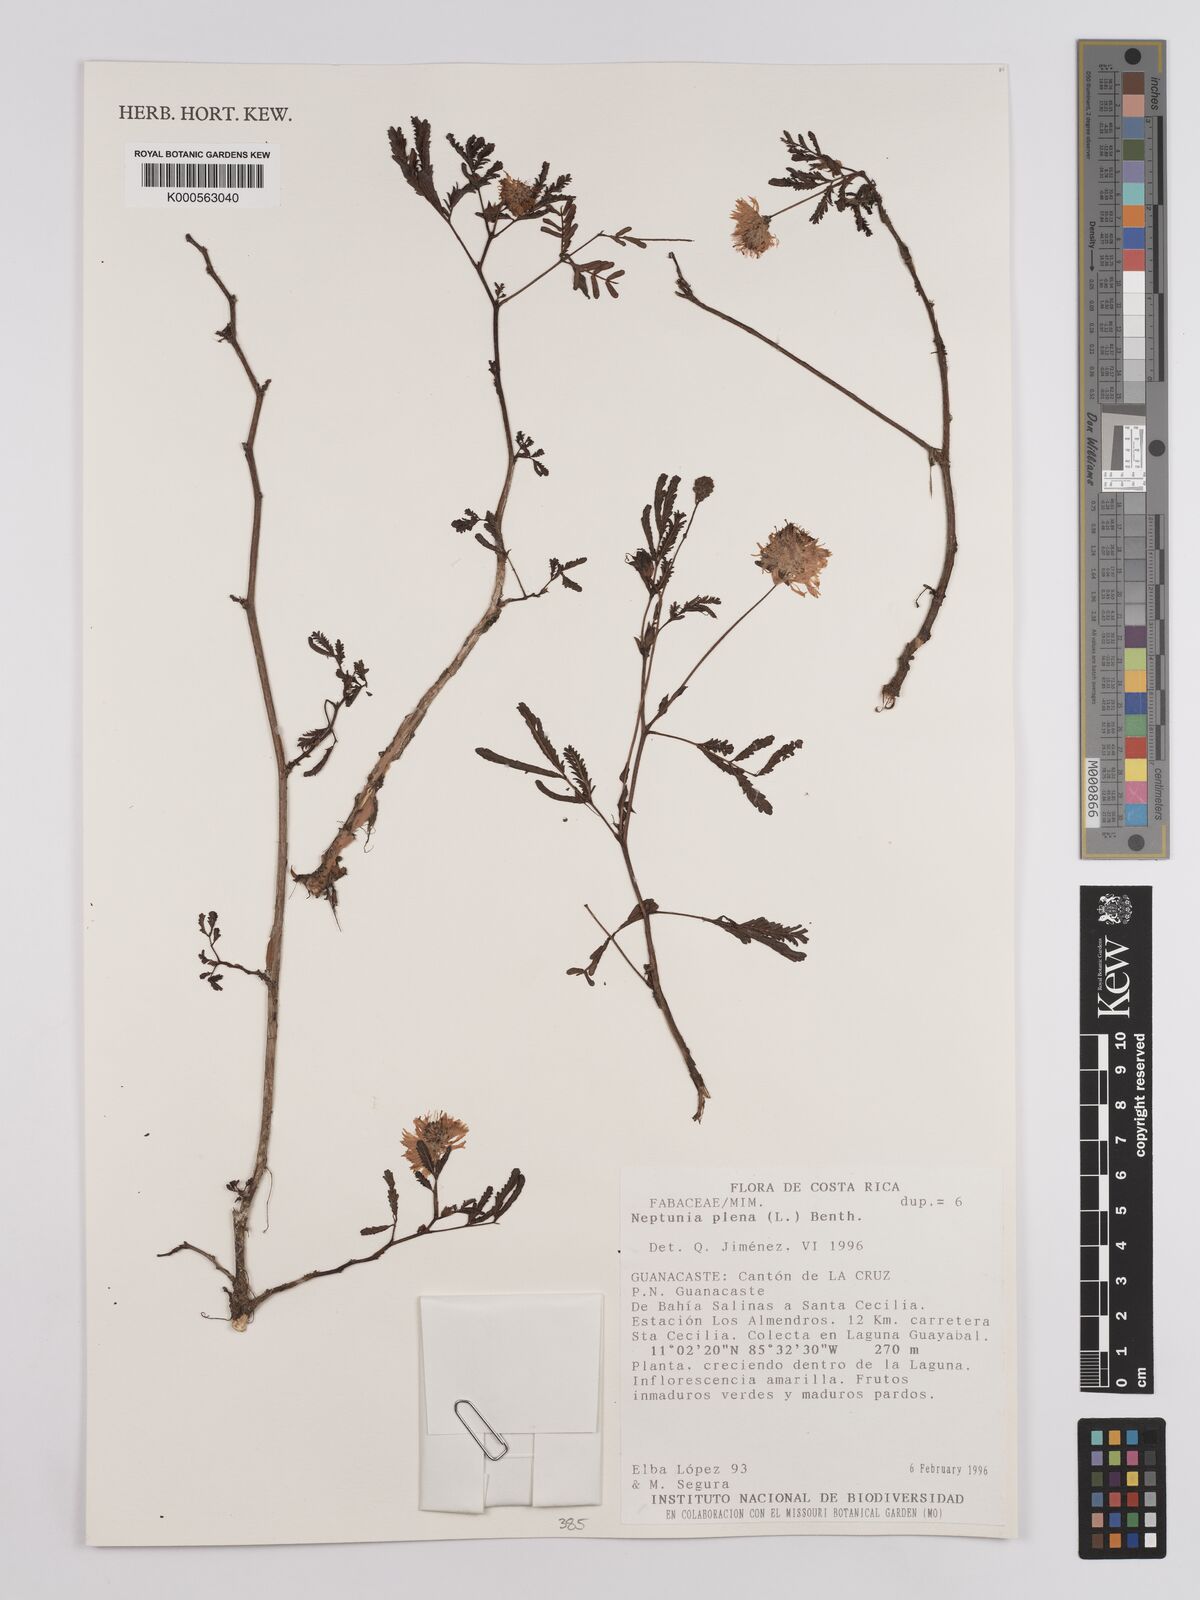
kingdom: Plantae
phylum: Tracheophyta
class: Magnoliopsida
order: Fabales
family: Fabaceae
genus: Neptunia
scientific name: Neptunia plena
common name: Dead and awake
